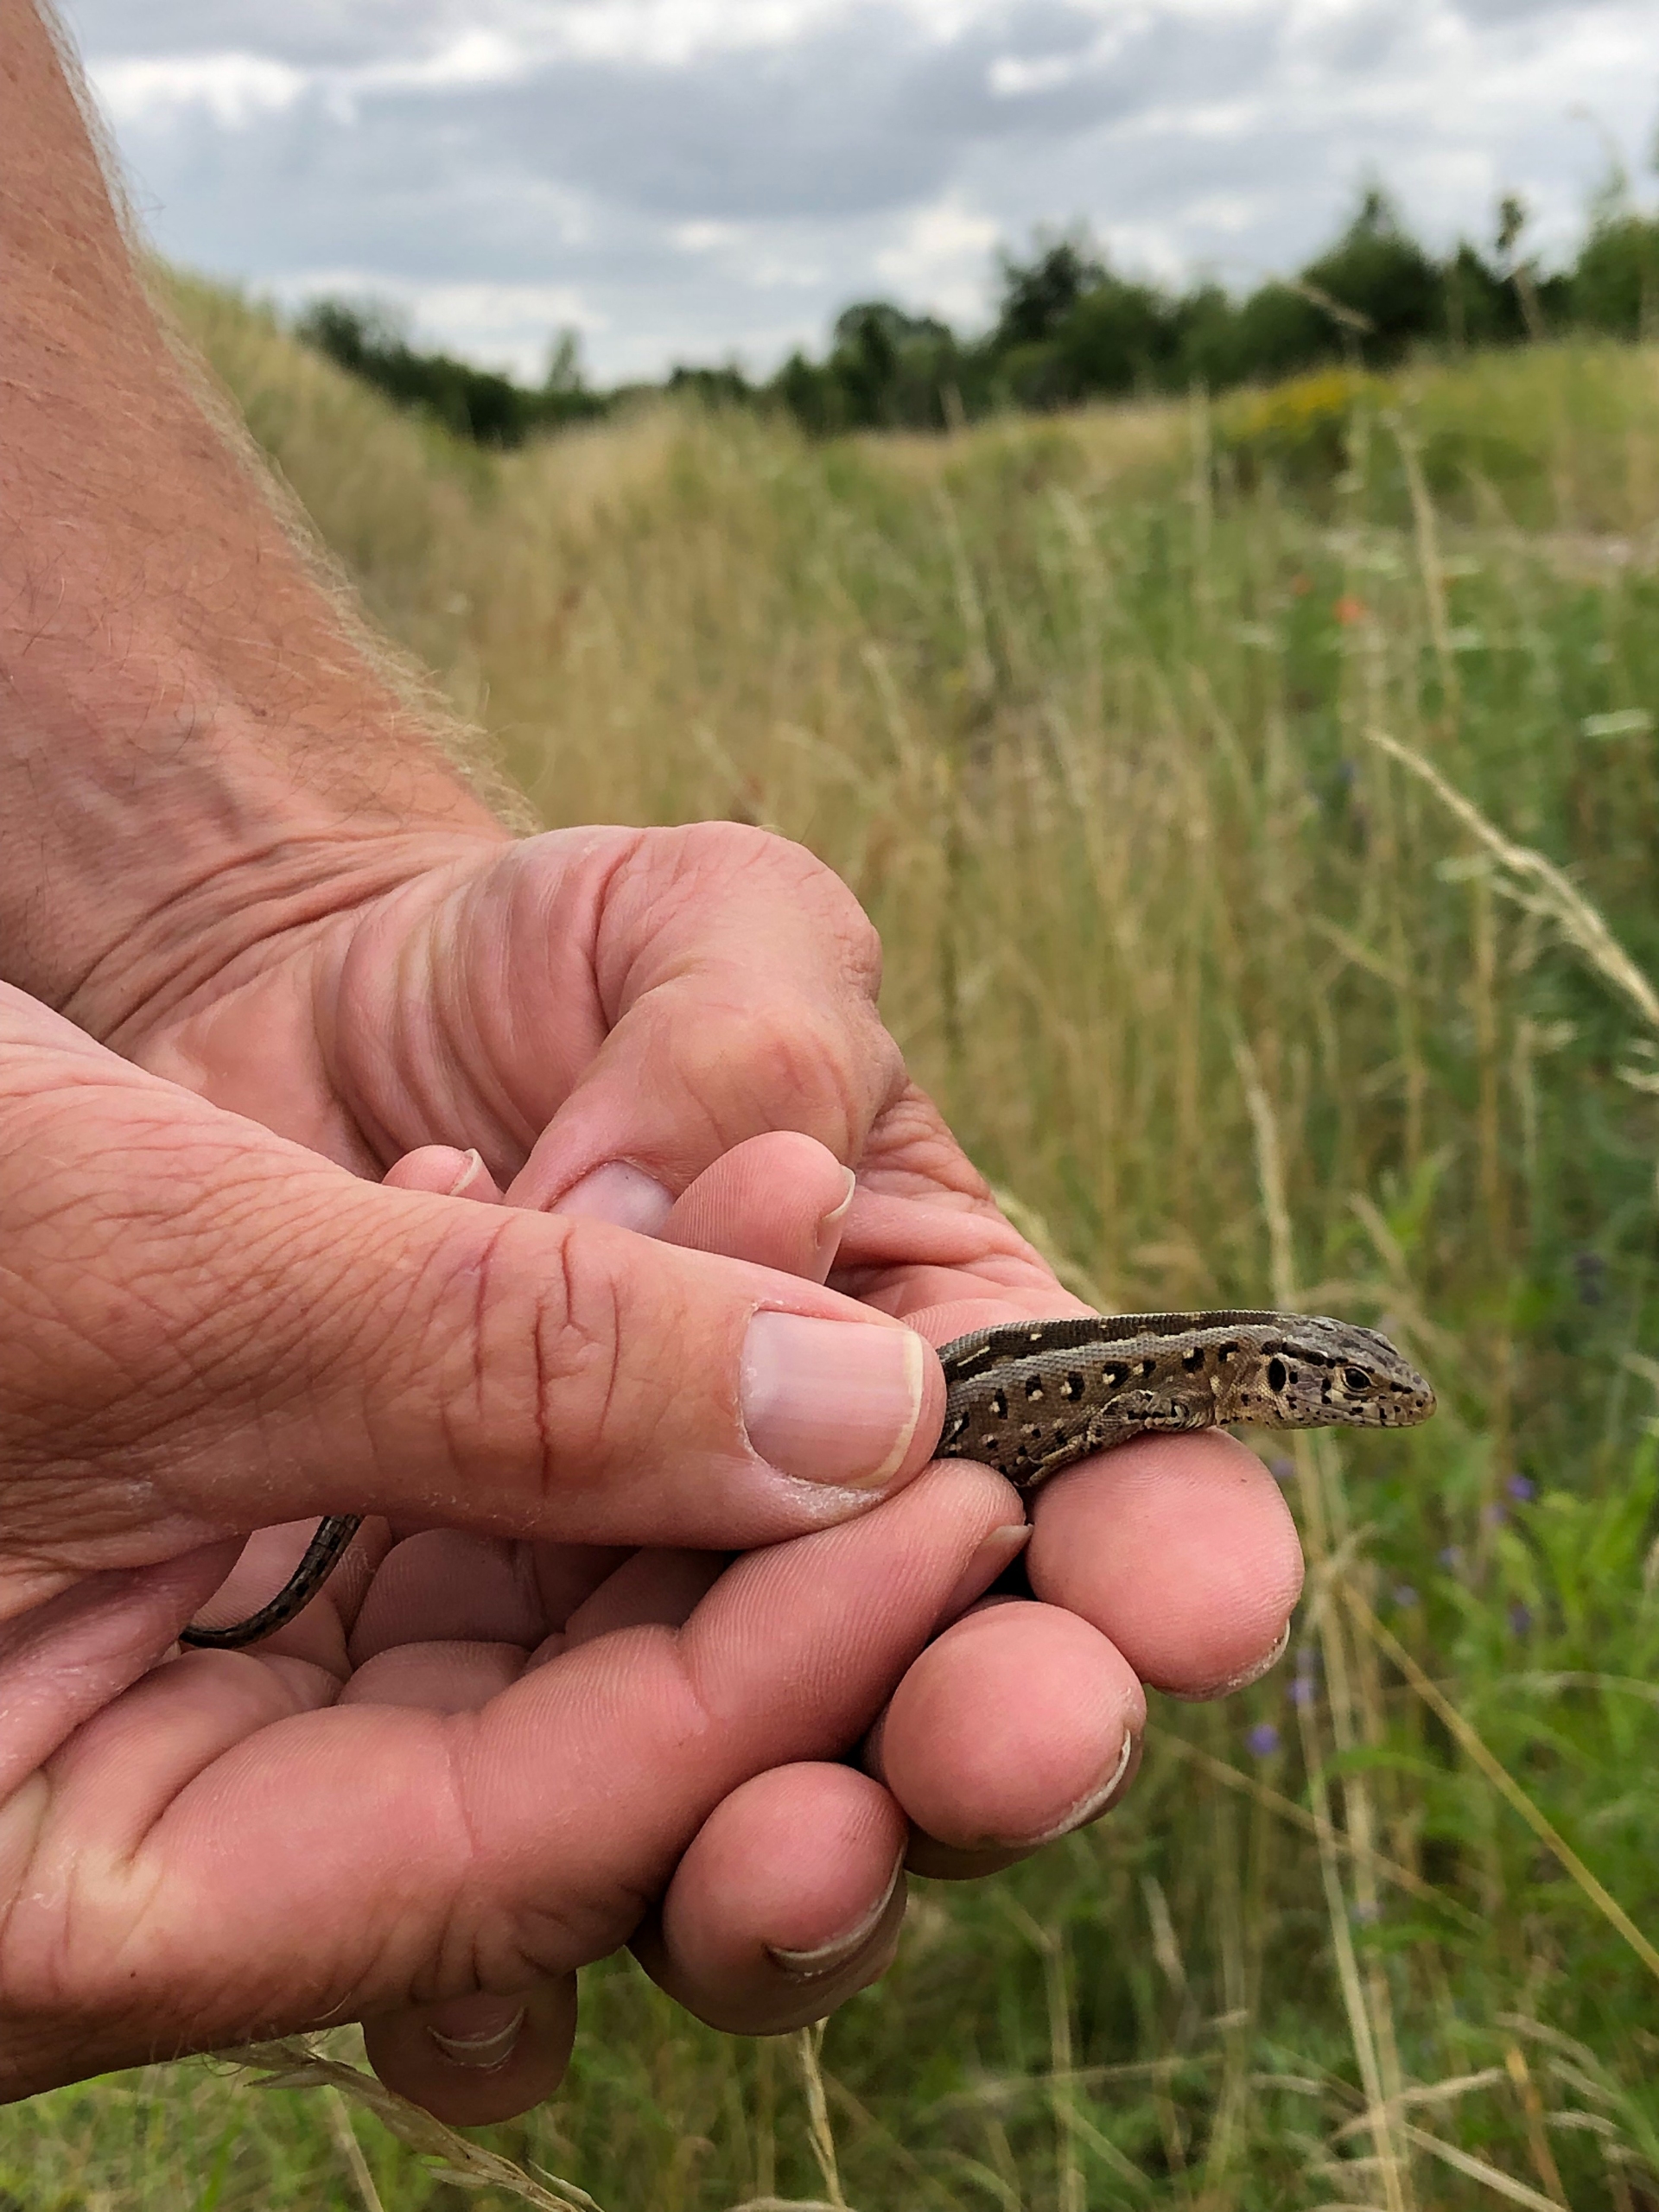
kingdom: Animalia
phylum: Chordata
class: Squamata
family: Lacertidae
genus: Lacerta
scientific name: Lacerta agilis
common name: Markfirben
